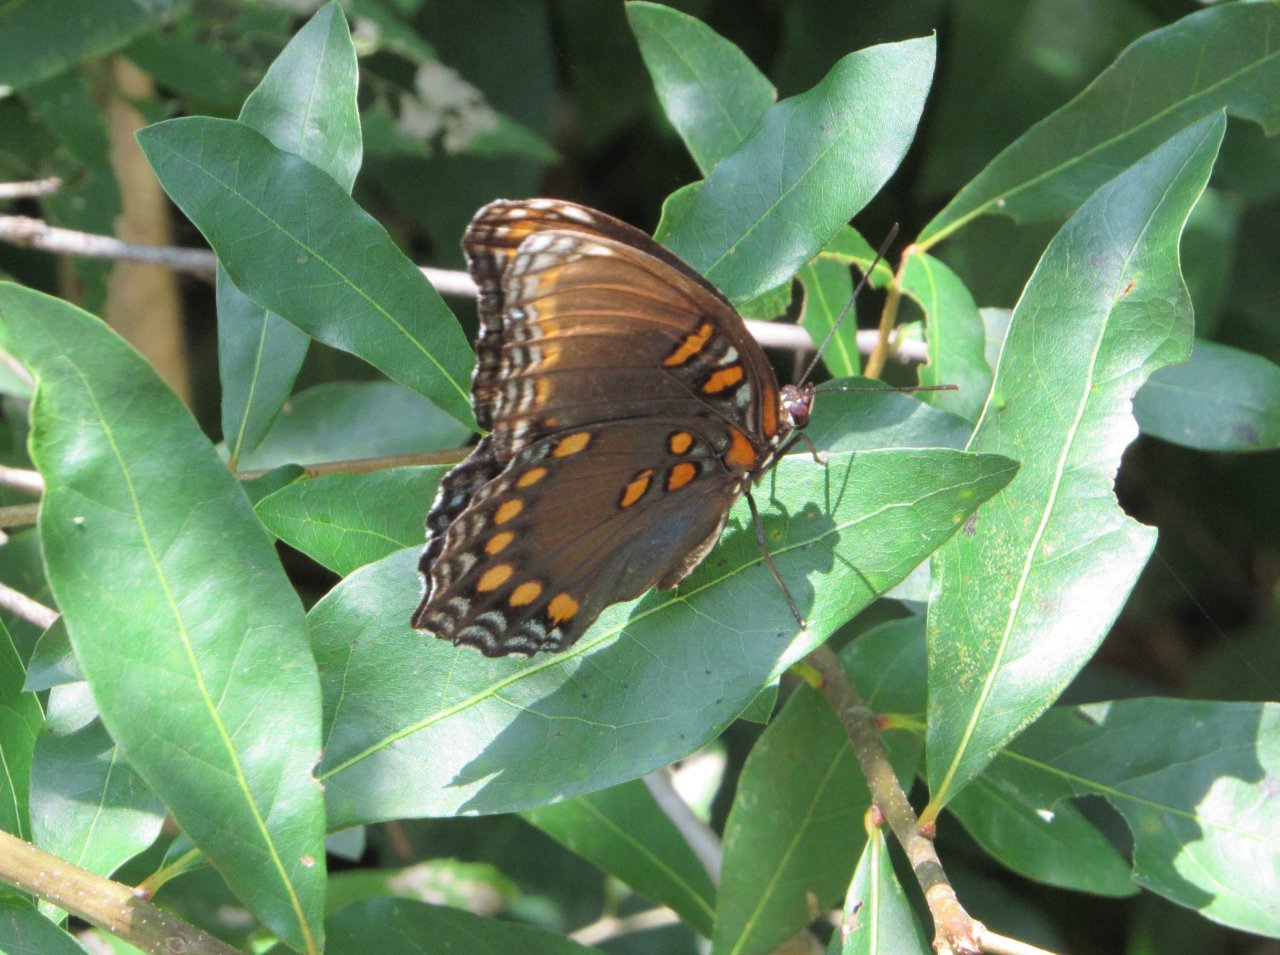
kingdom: Animalia
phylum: Arthropoda
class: Insecta
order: Lepidoptera
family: Nymphalidae
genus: Limenitis
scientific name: Limenitis astyanax
